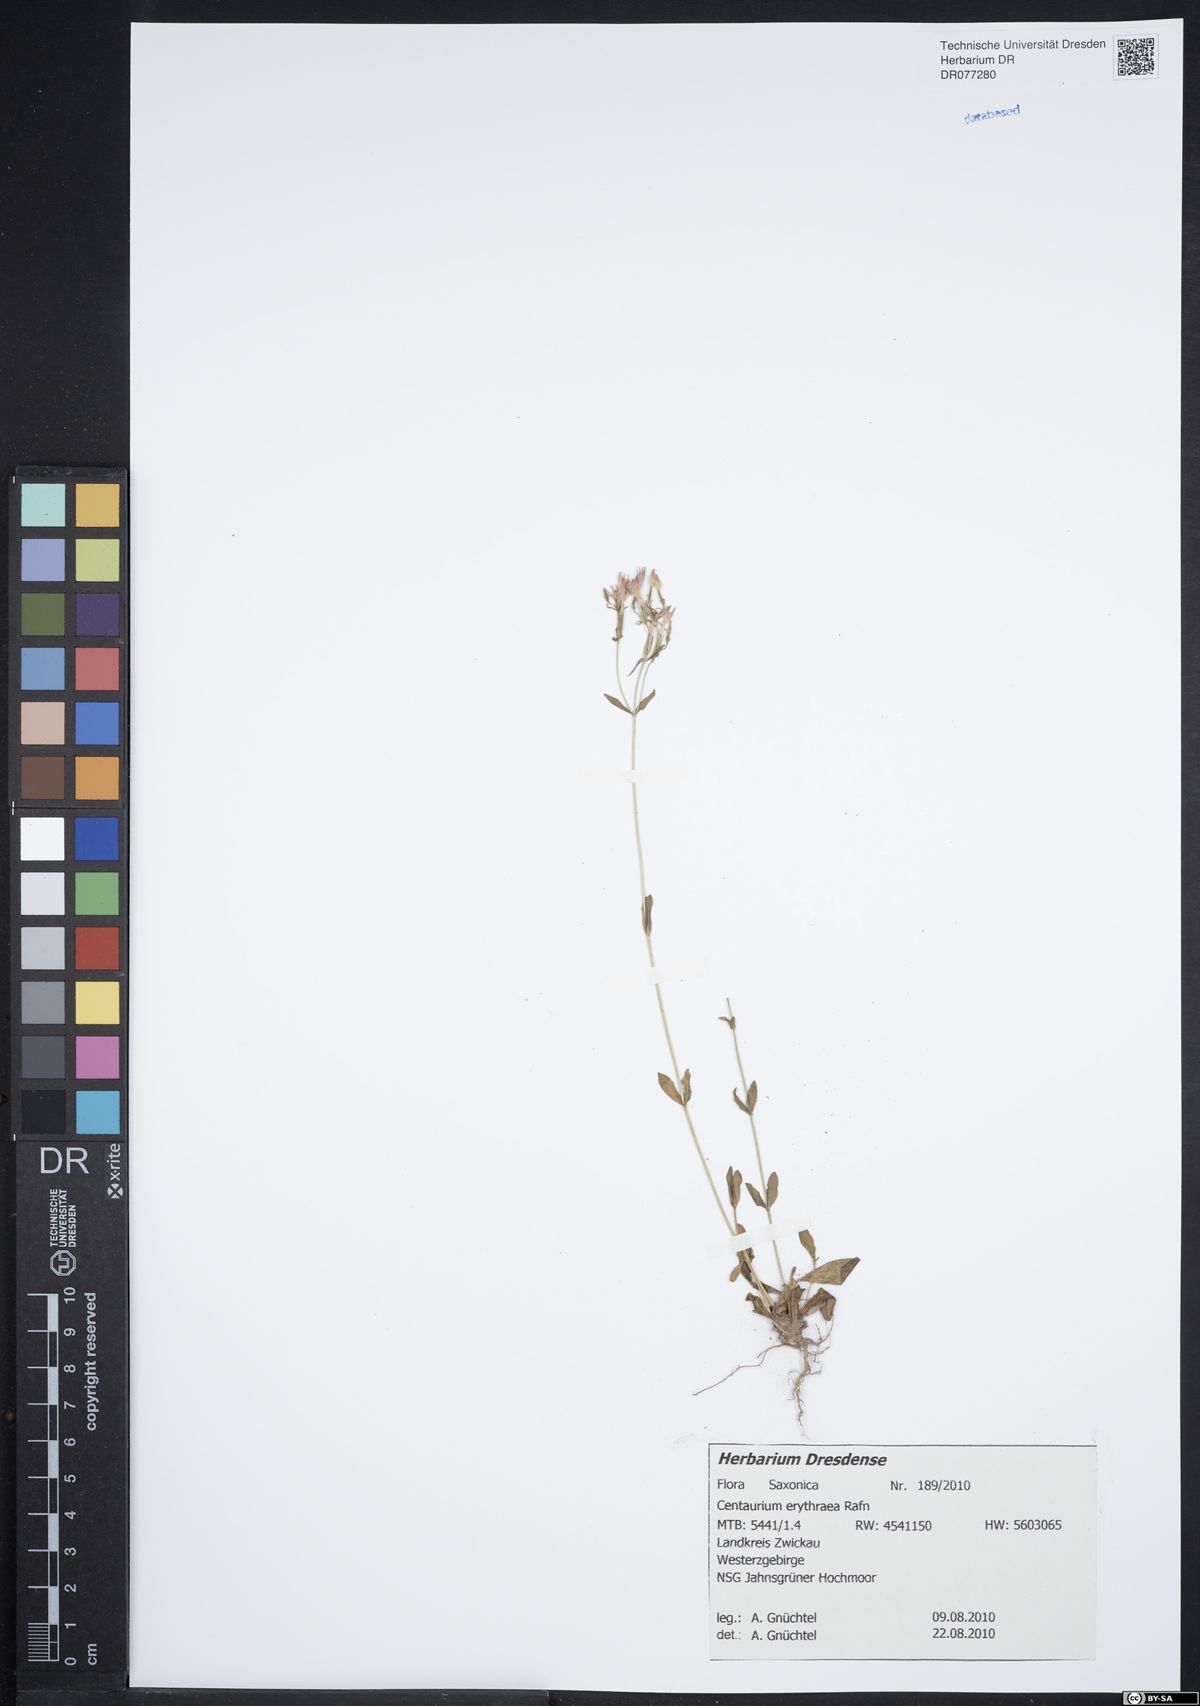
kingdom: Plantae
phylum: Tracheophyta
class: Magnoliopsida
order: Gentianales
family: Gentianaceae
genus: Centaurium
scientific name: Centaurium erythraea
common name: Common centaury
